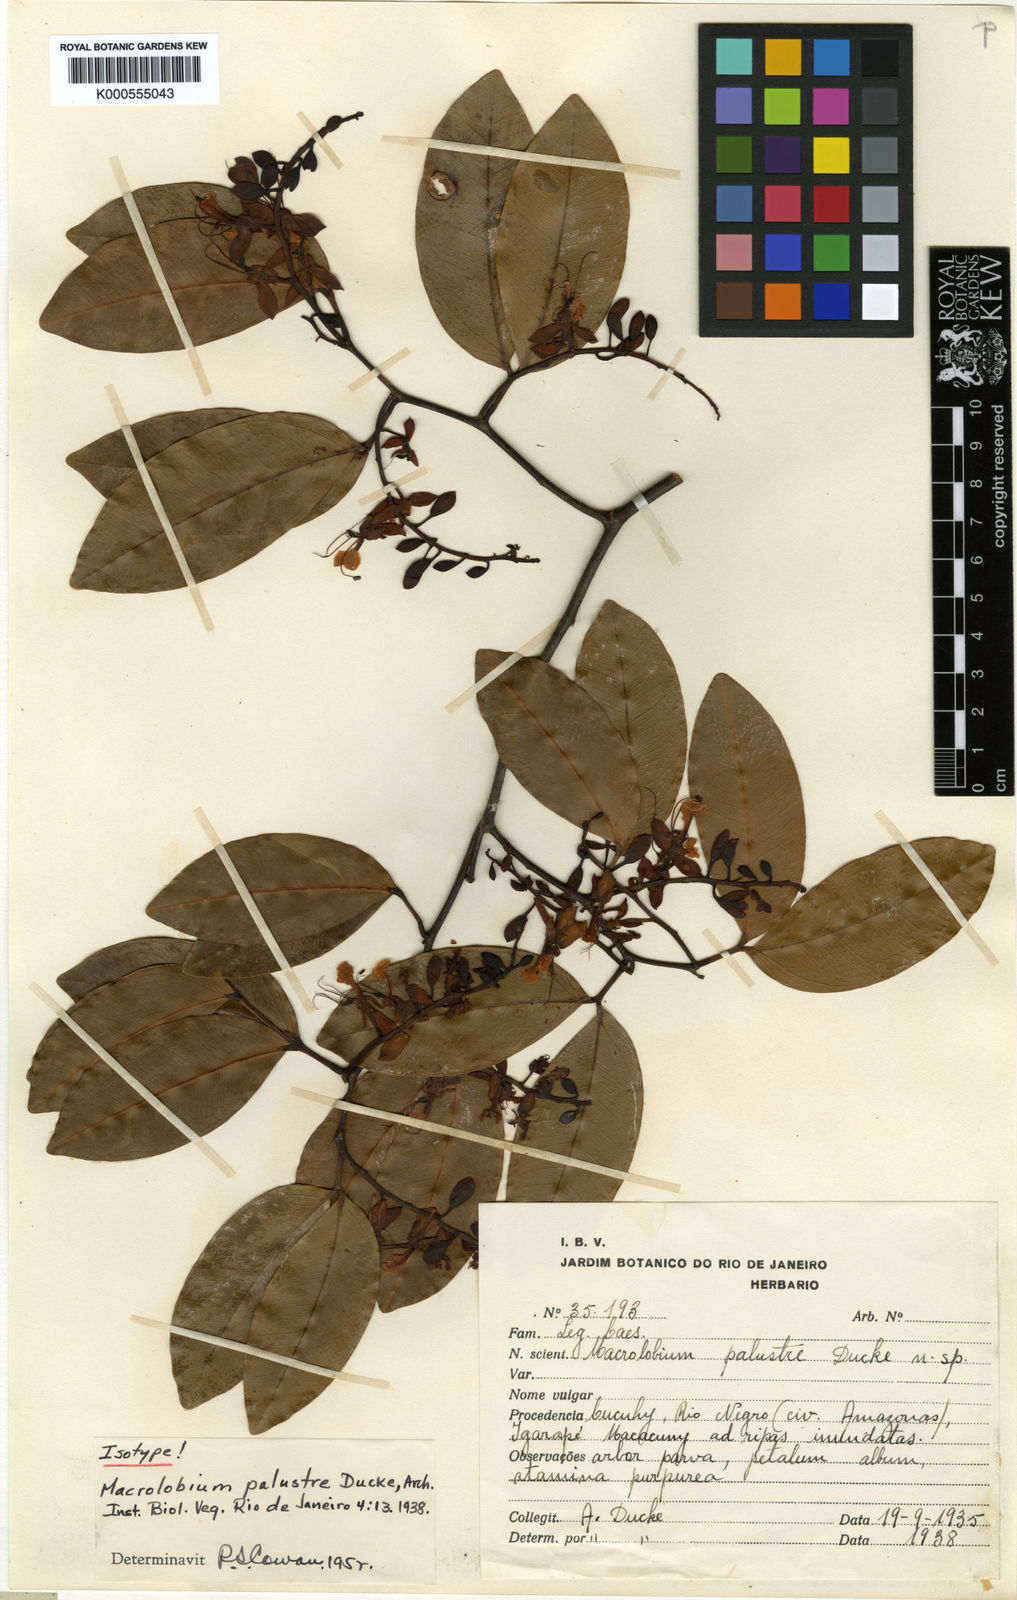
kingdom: Plantae
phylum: Tracheophyta
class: Magnoliopsida
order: Fabales
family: Fabaceae
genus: Macrolobium
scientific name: Macrolobium palustre
